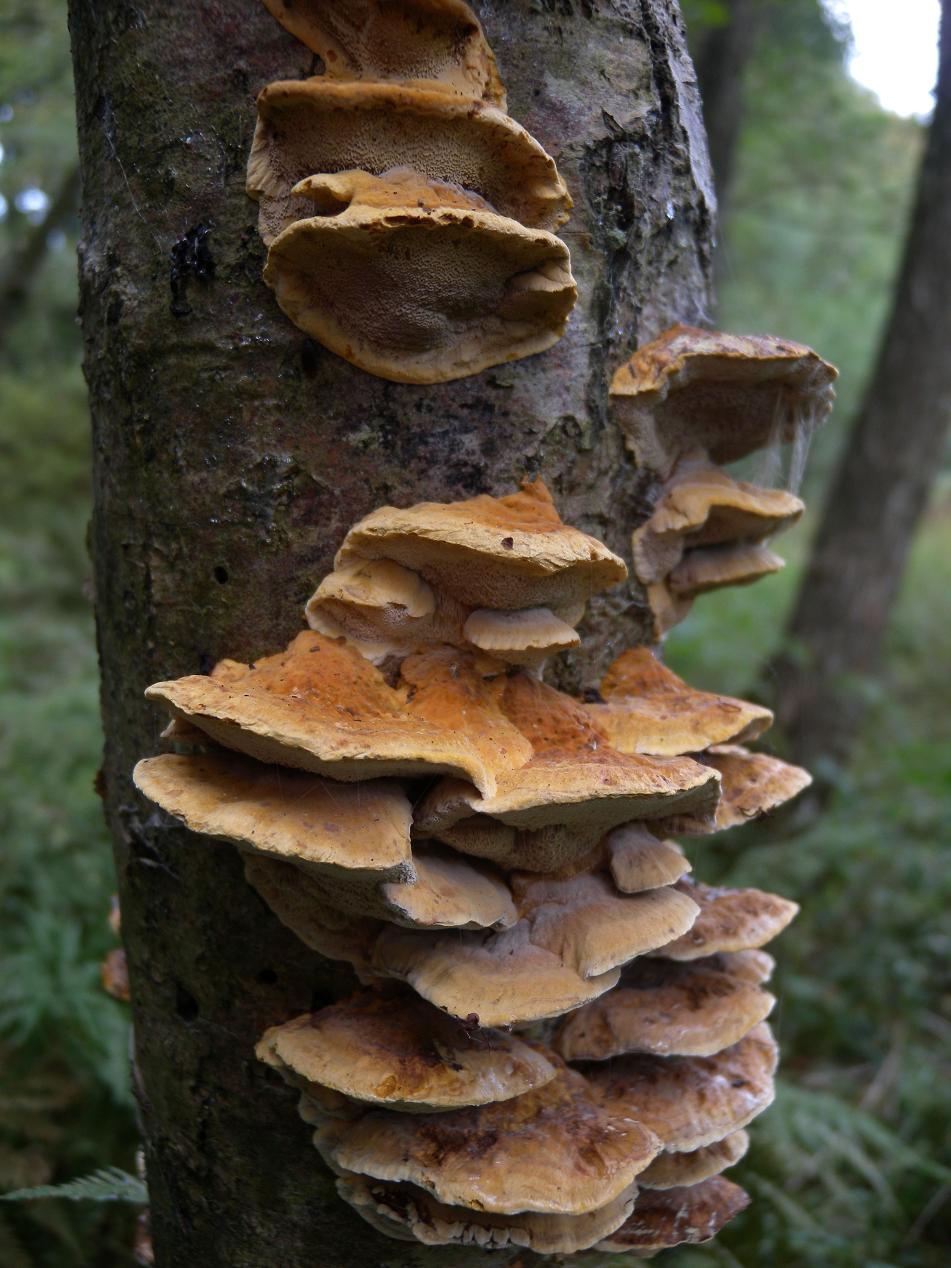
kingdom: Fungi
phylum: Basidiomycota
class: Agaricomycetes
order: Hymenochaetales
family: Hymenochaetaceae
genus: Xanthoporia
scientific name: Xanthoporia radiata
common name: elle-spejlporesvamp
